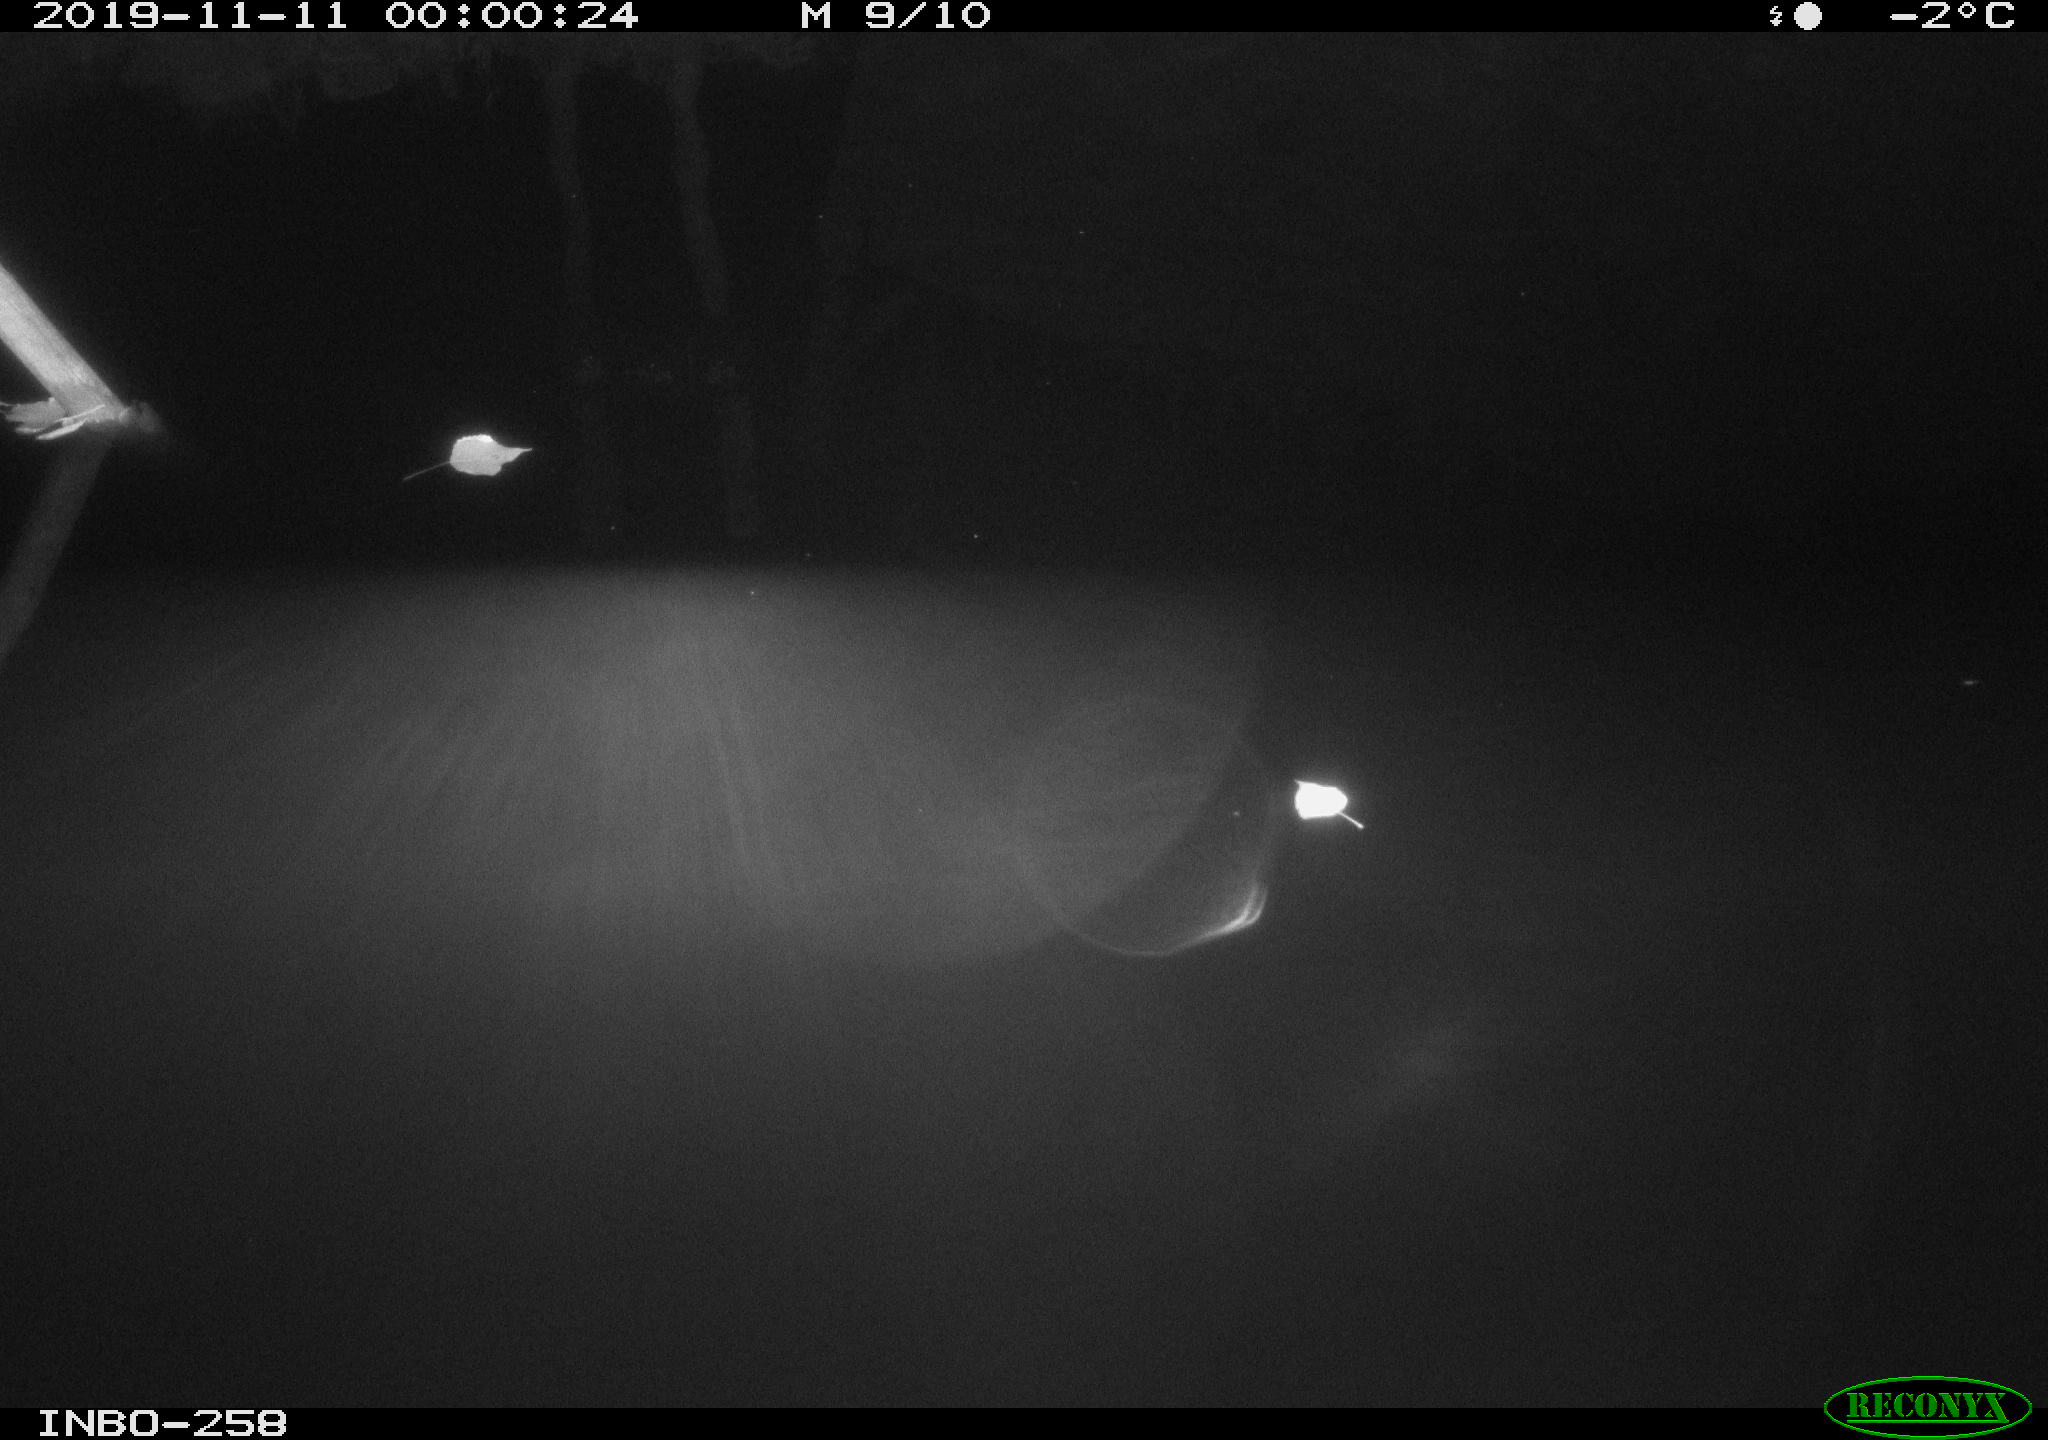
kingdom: Animalia
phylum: Chordata
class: Aves
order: Anseriformes
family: Anatidae
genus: Anas
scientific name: Anas platyrhynchos
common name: Mallard
